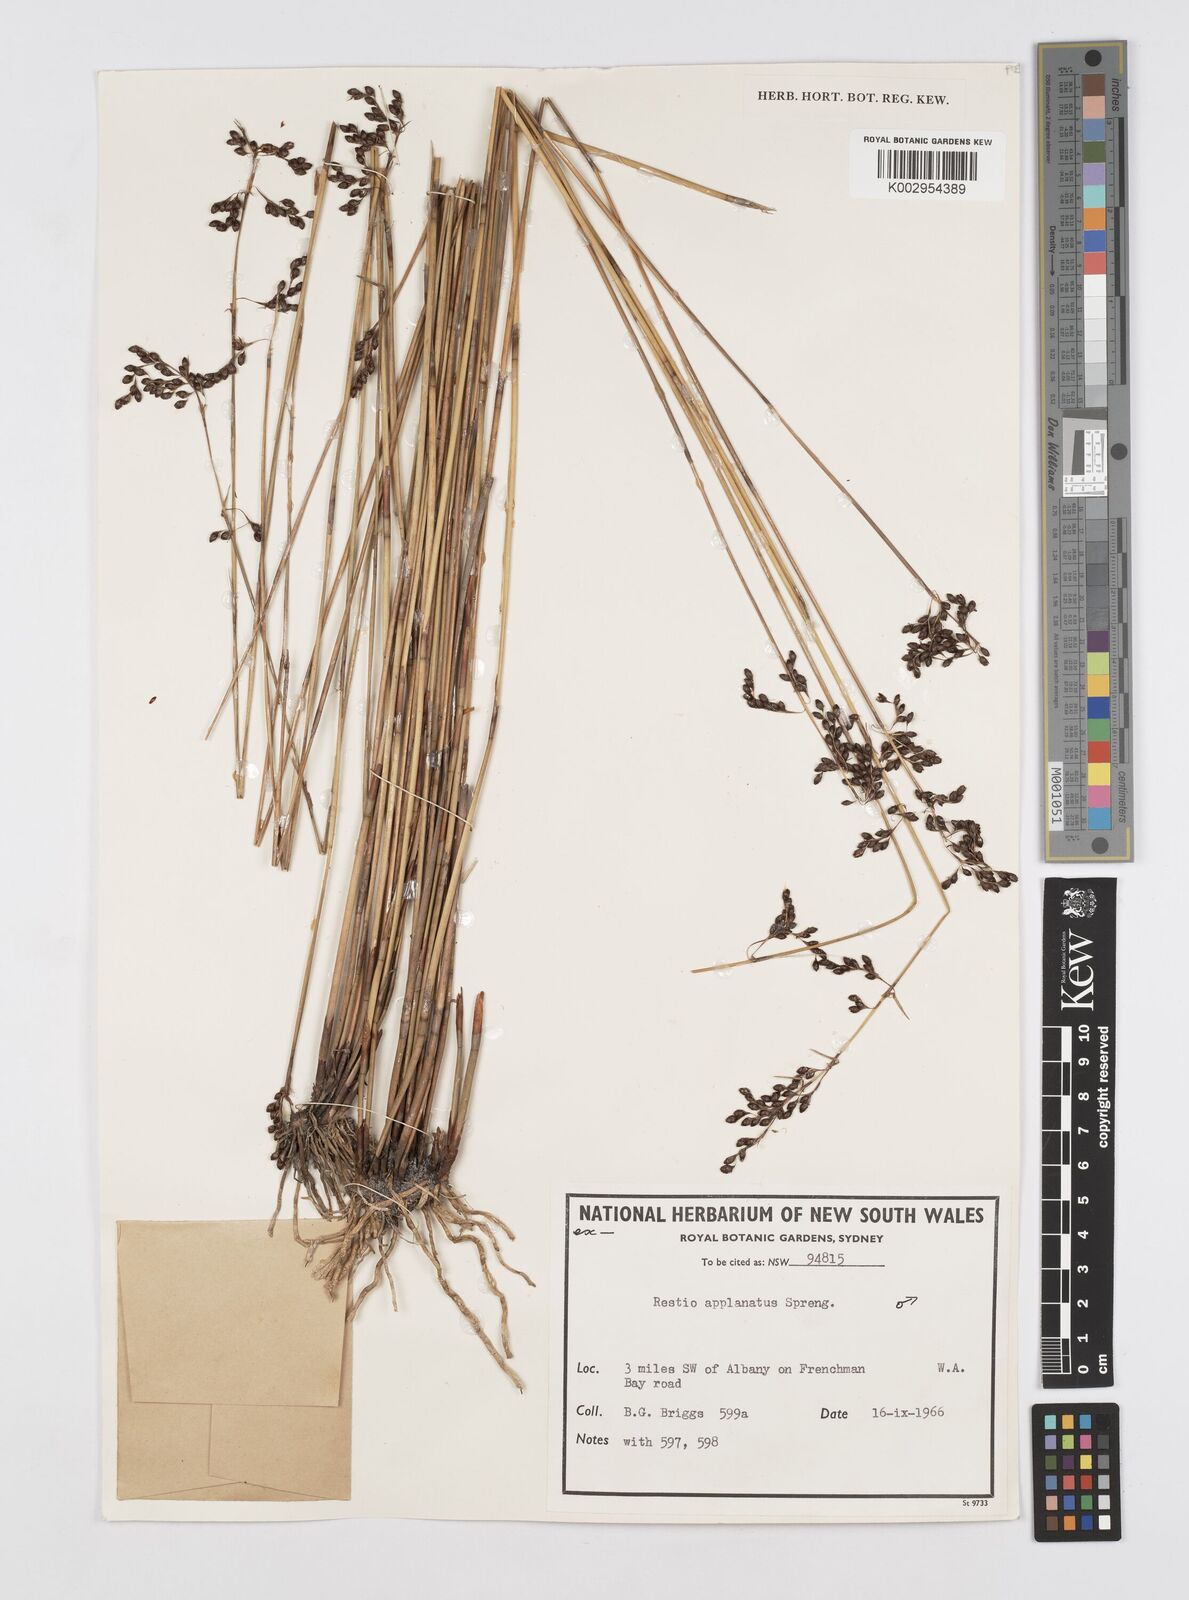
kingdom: Plantae
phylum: Tracheophyta
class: Liliopsida
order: Poales
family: Restionaceae
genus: Platychorda
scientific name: Platychorda applanata
